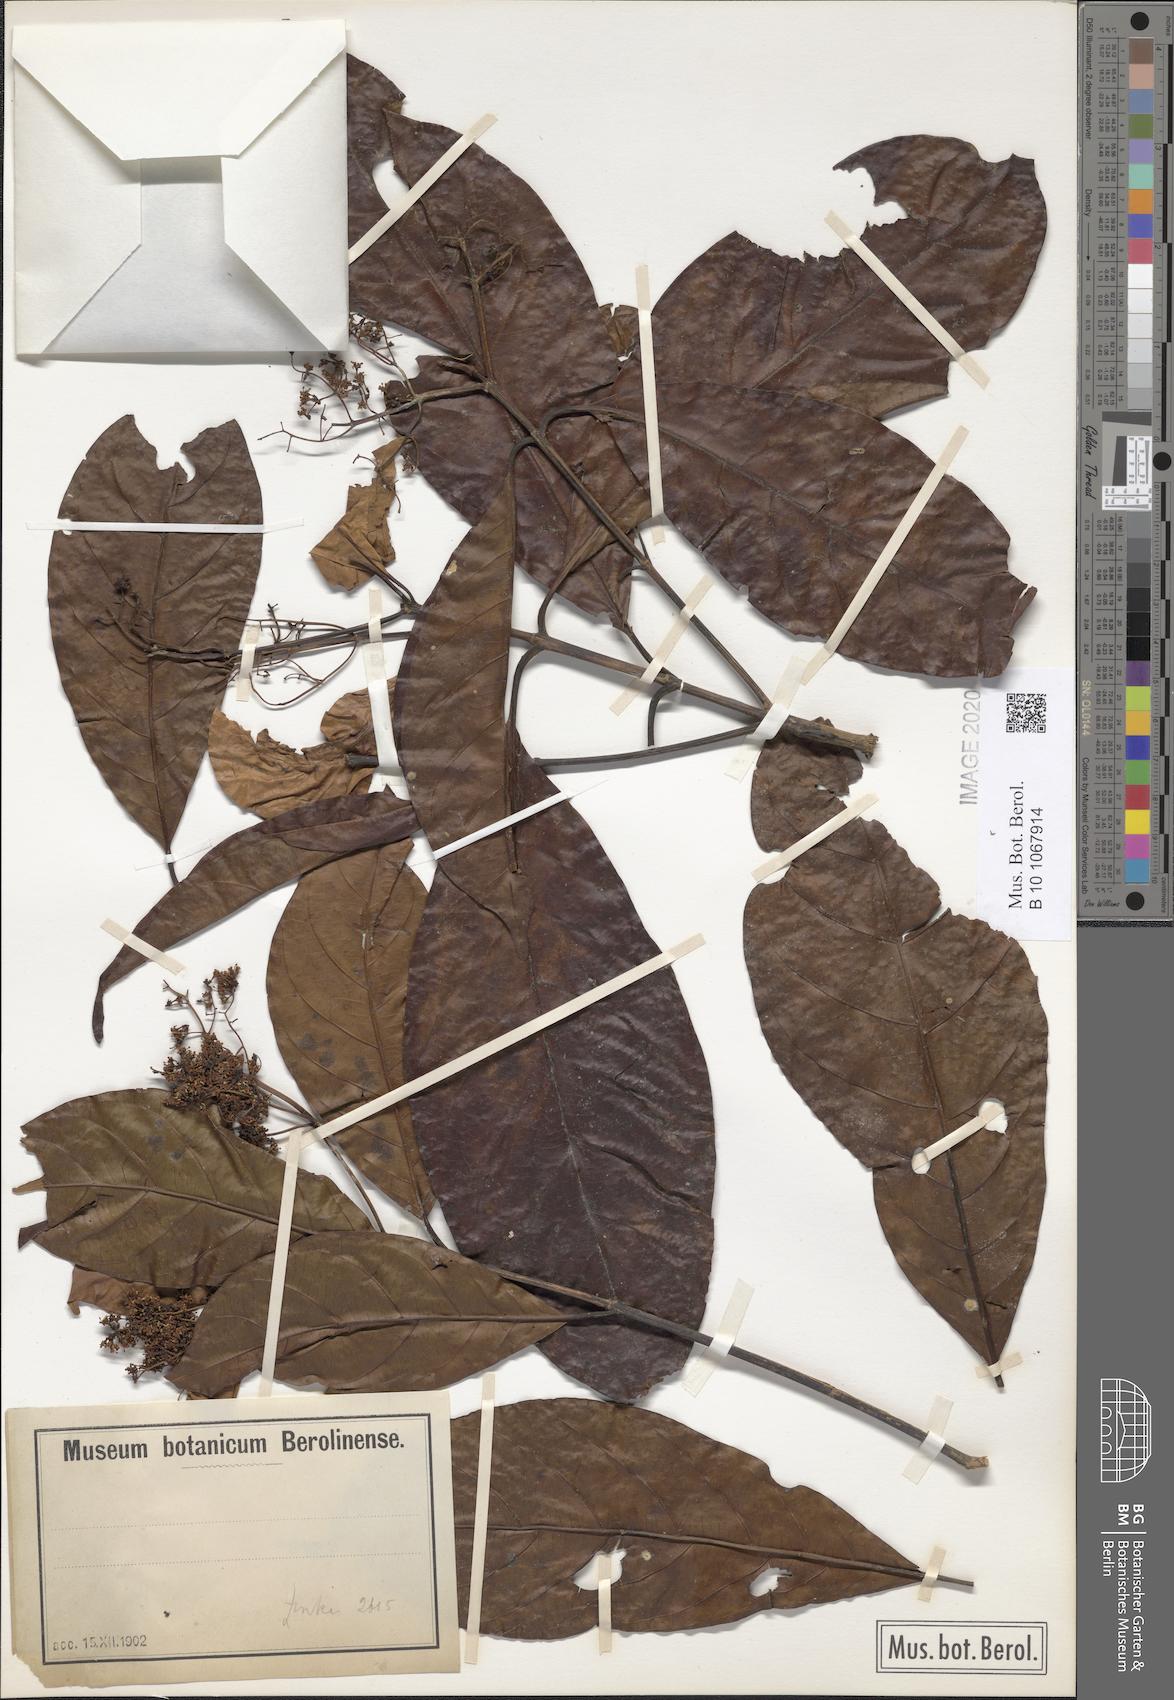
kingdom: Plantae
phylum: Tracheophyta
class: Magnoliopsida
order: Gentianales
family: Rubiaceae
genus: Corynanthe
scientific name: Corynanthe
